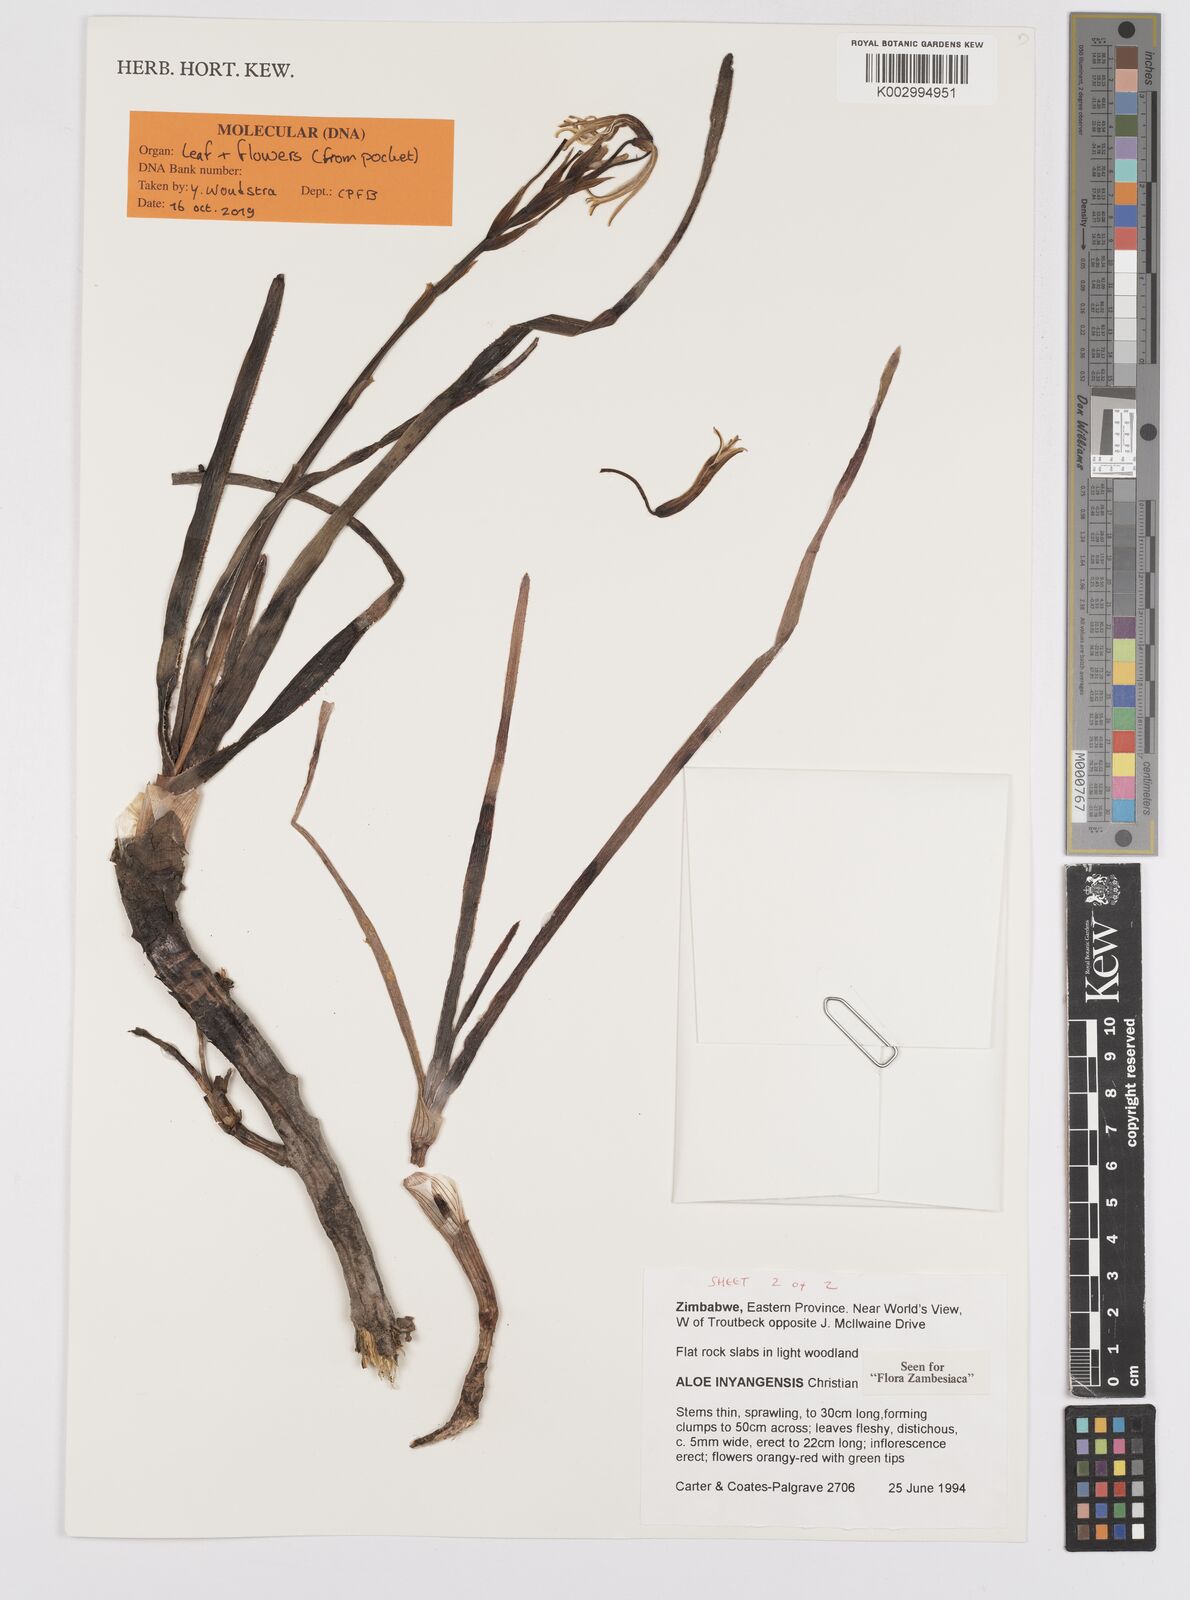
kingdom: Plantae
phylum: Tracheophyta
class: Liliopsida
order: Asparagales
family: Asphodelaceae
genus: Aloe
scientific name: Aloe inyangensis
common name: Inyanga aloe
